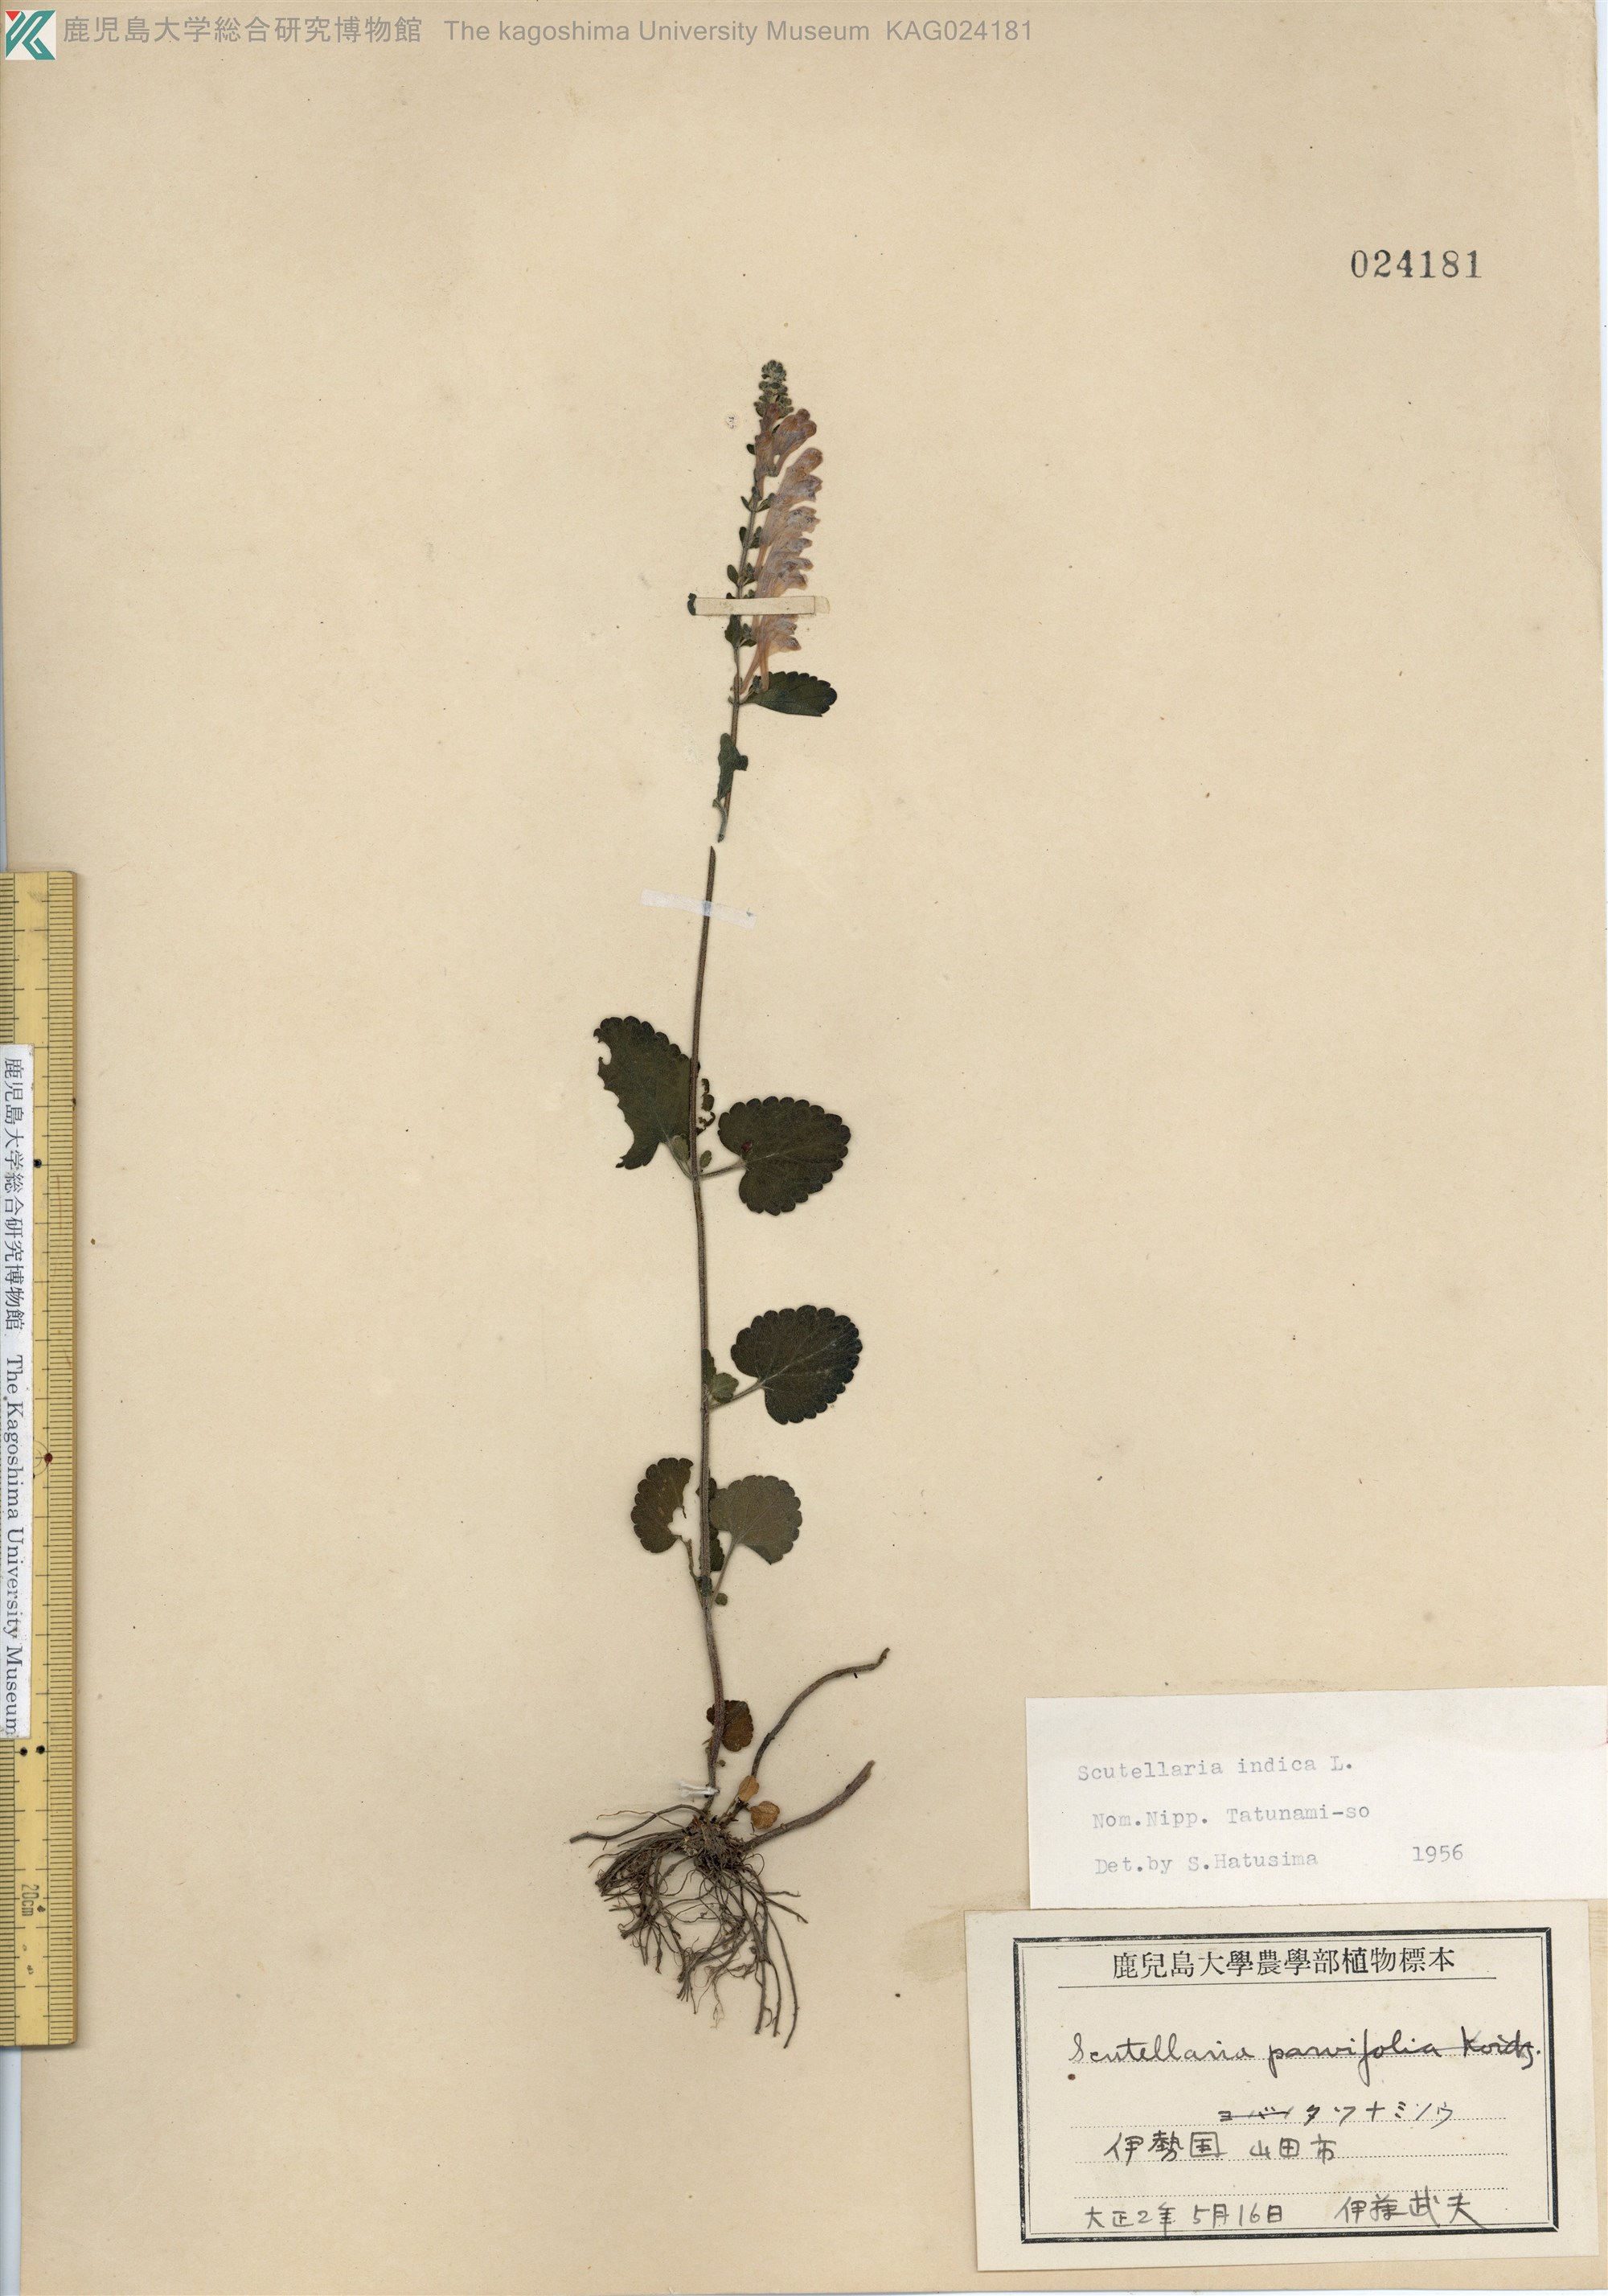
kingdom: Plantae
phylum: Tracheophyta
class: Magnoliopsida
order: Lamiales
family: Lamiaceae
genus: Scutellaria
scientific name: Scutellaria indica
